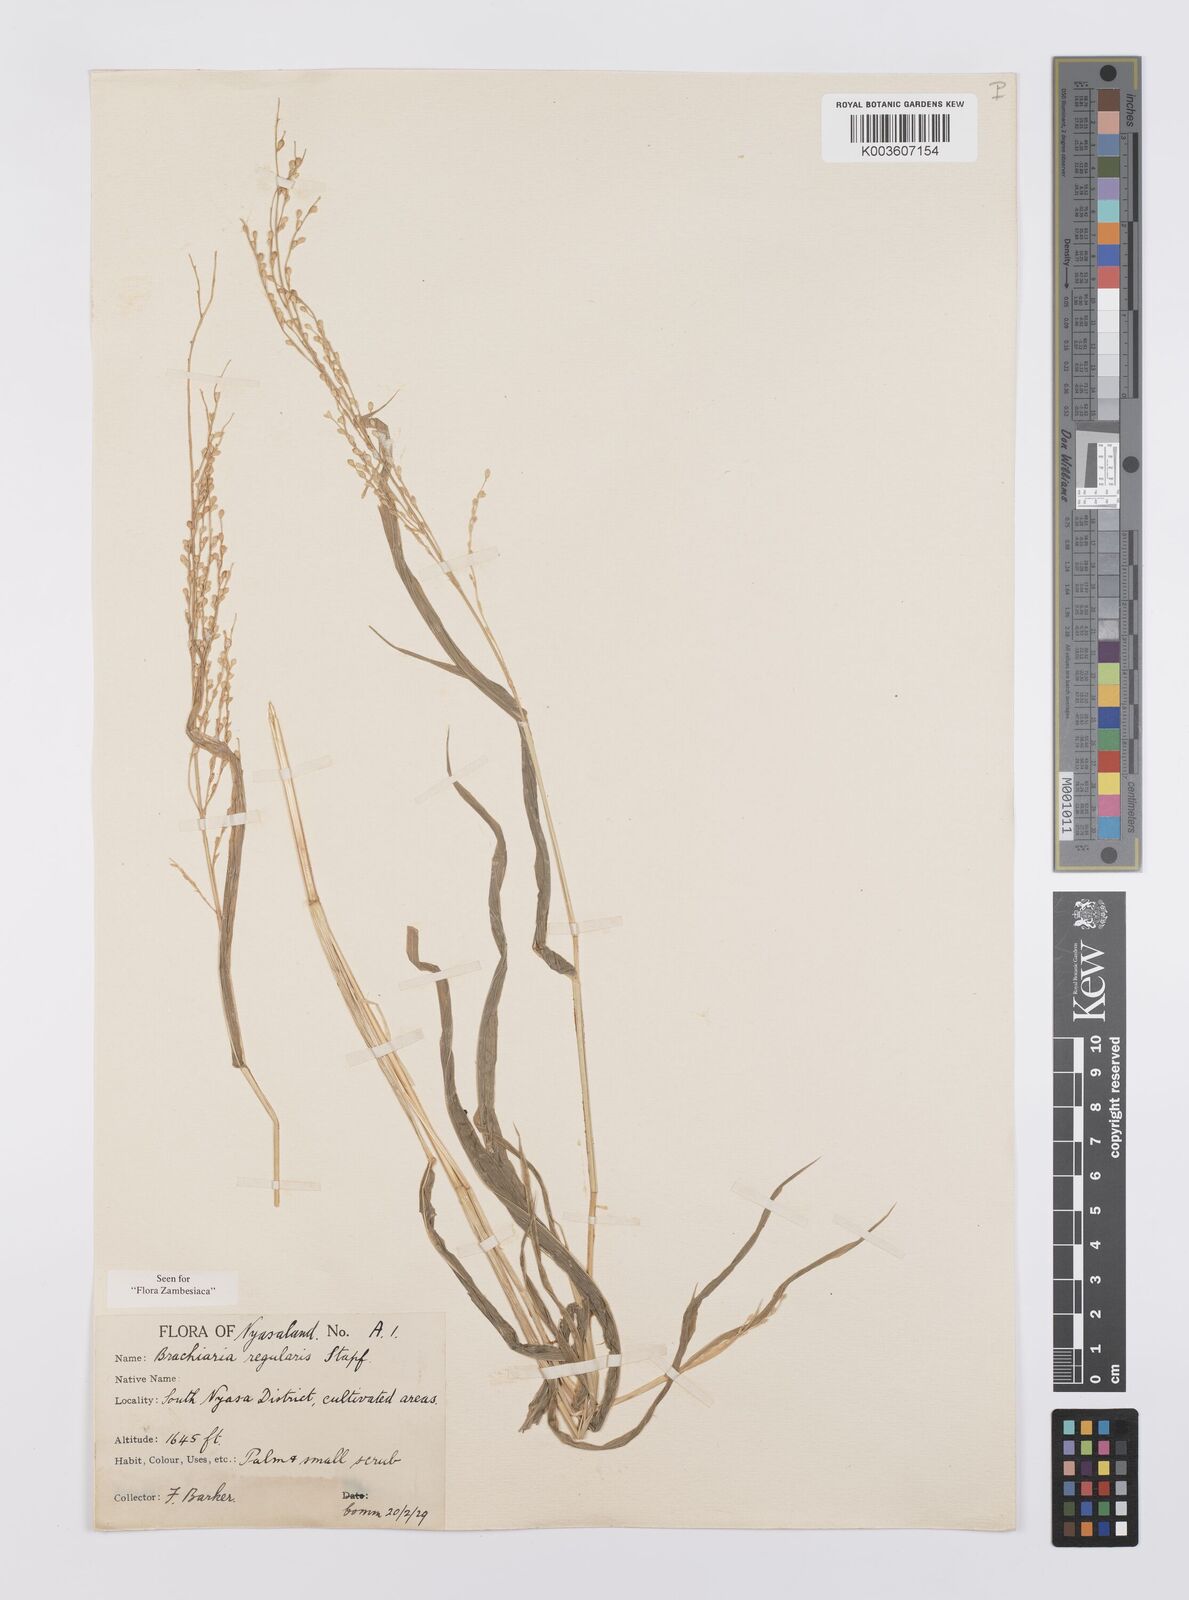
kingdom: Plantae
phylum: Tracheophyta
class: Liliopsida
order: Poales
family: Poaceae
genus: Urochloa
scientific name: Urochloa deflexa
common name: Guinea millet
